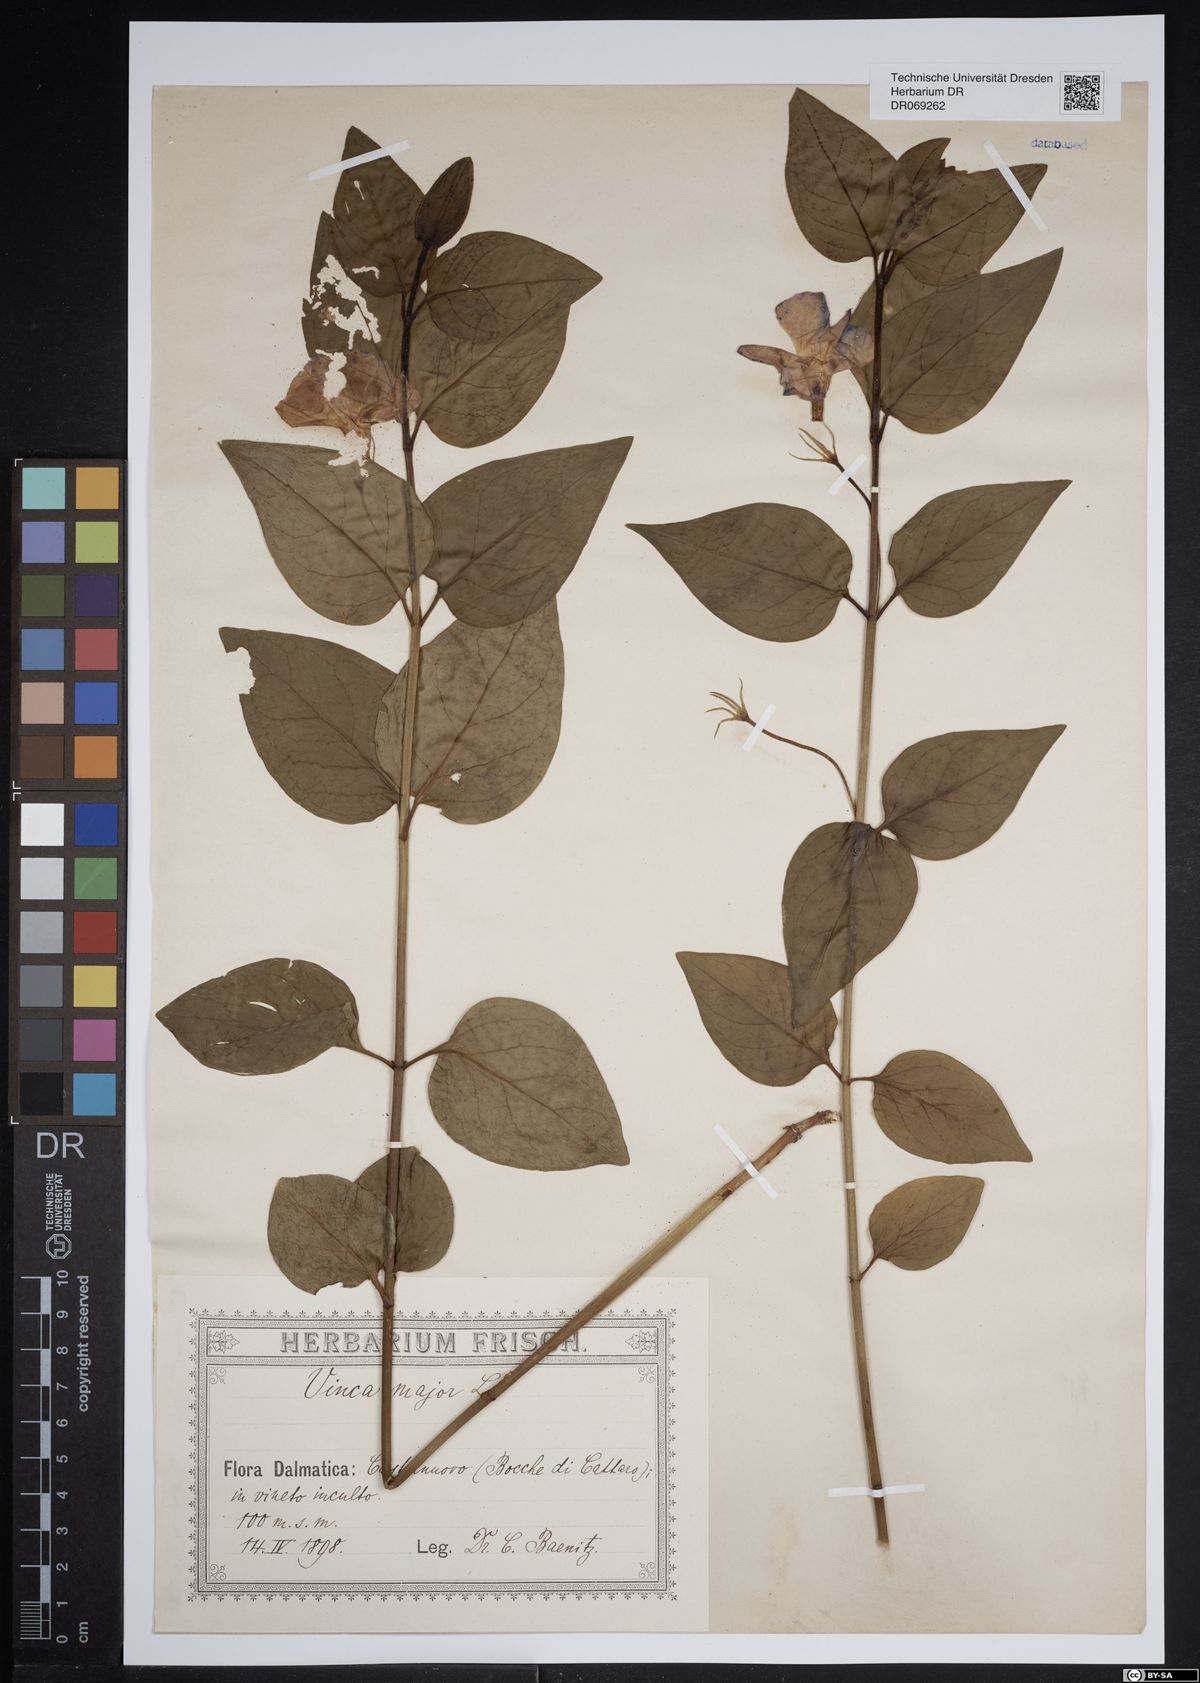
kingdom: Plantae
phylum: Tracheophyta
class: Magnoliopsida
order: Gentianales
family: Apocynaceae
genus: Vinca
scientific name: Vinca major
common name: Greater periwinkle
